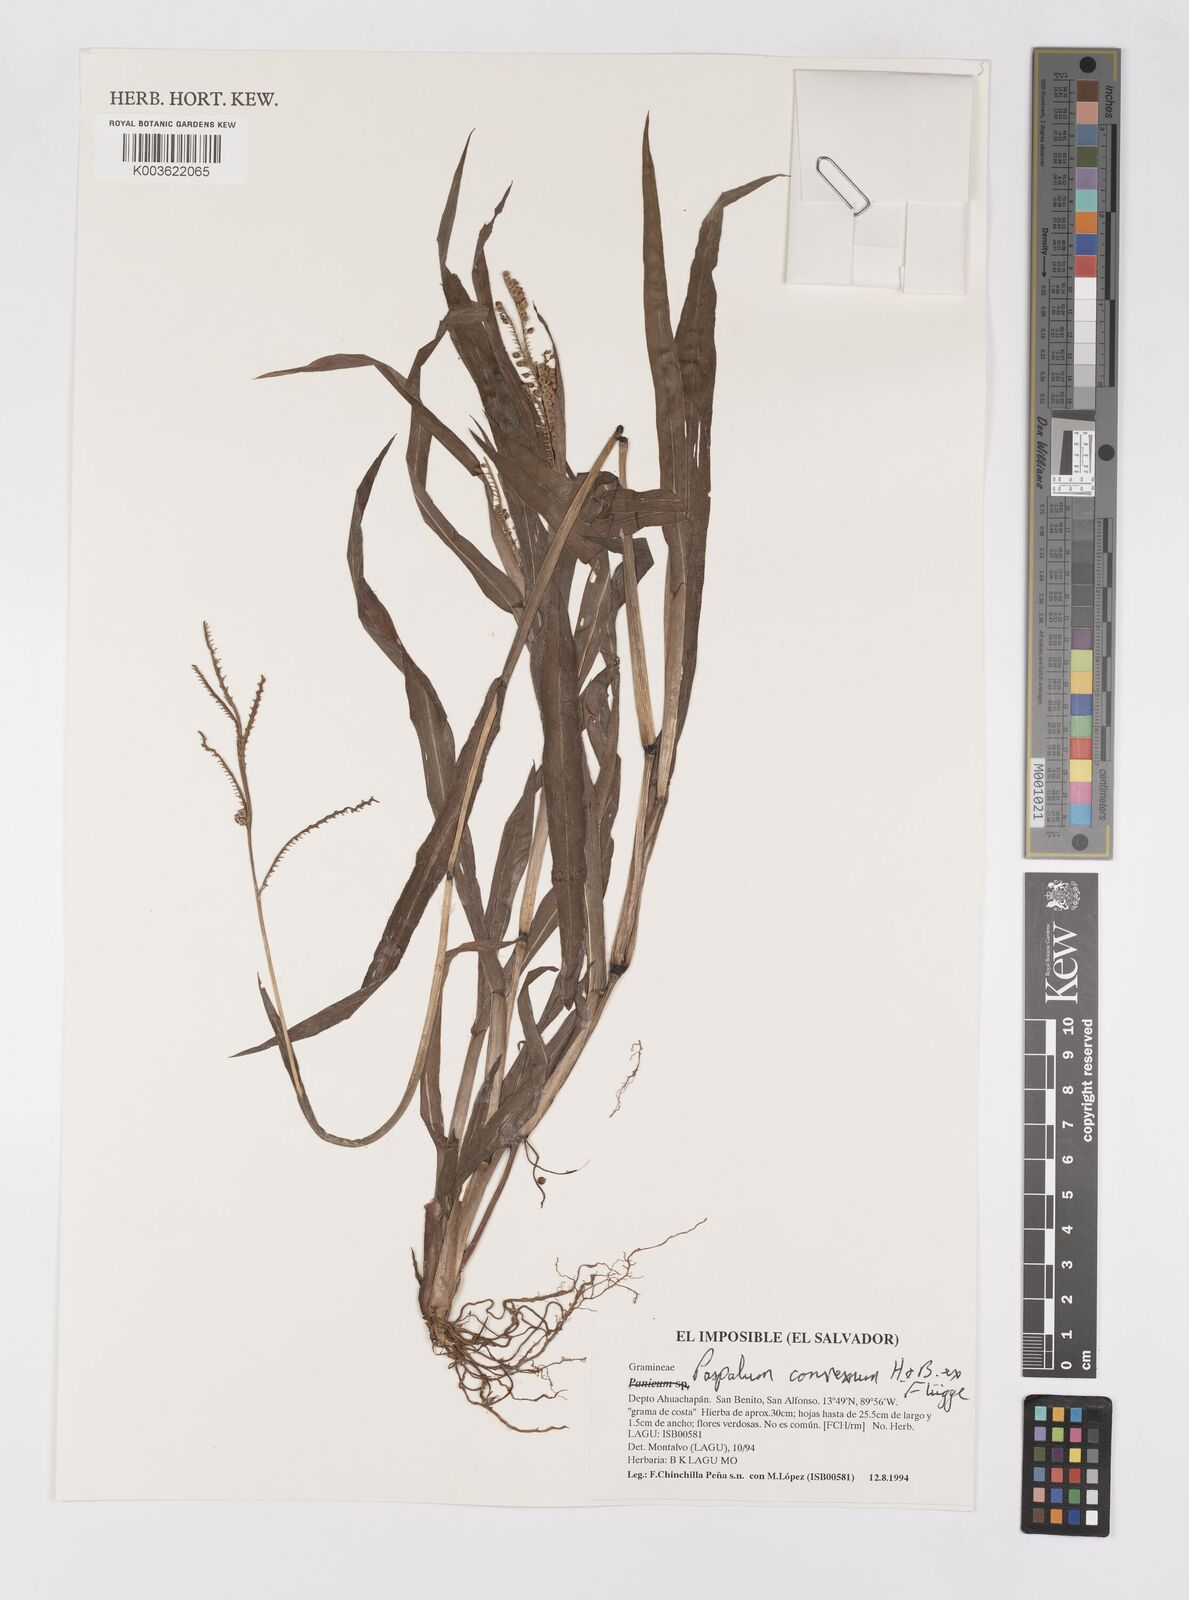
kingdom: Plantae
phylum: Tracheophyta
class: Liliopsida
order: Poales
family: Poaceae
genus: Paspalum
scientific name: Paspalum convexum
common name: Latin american crowngrass
